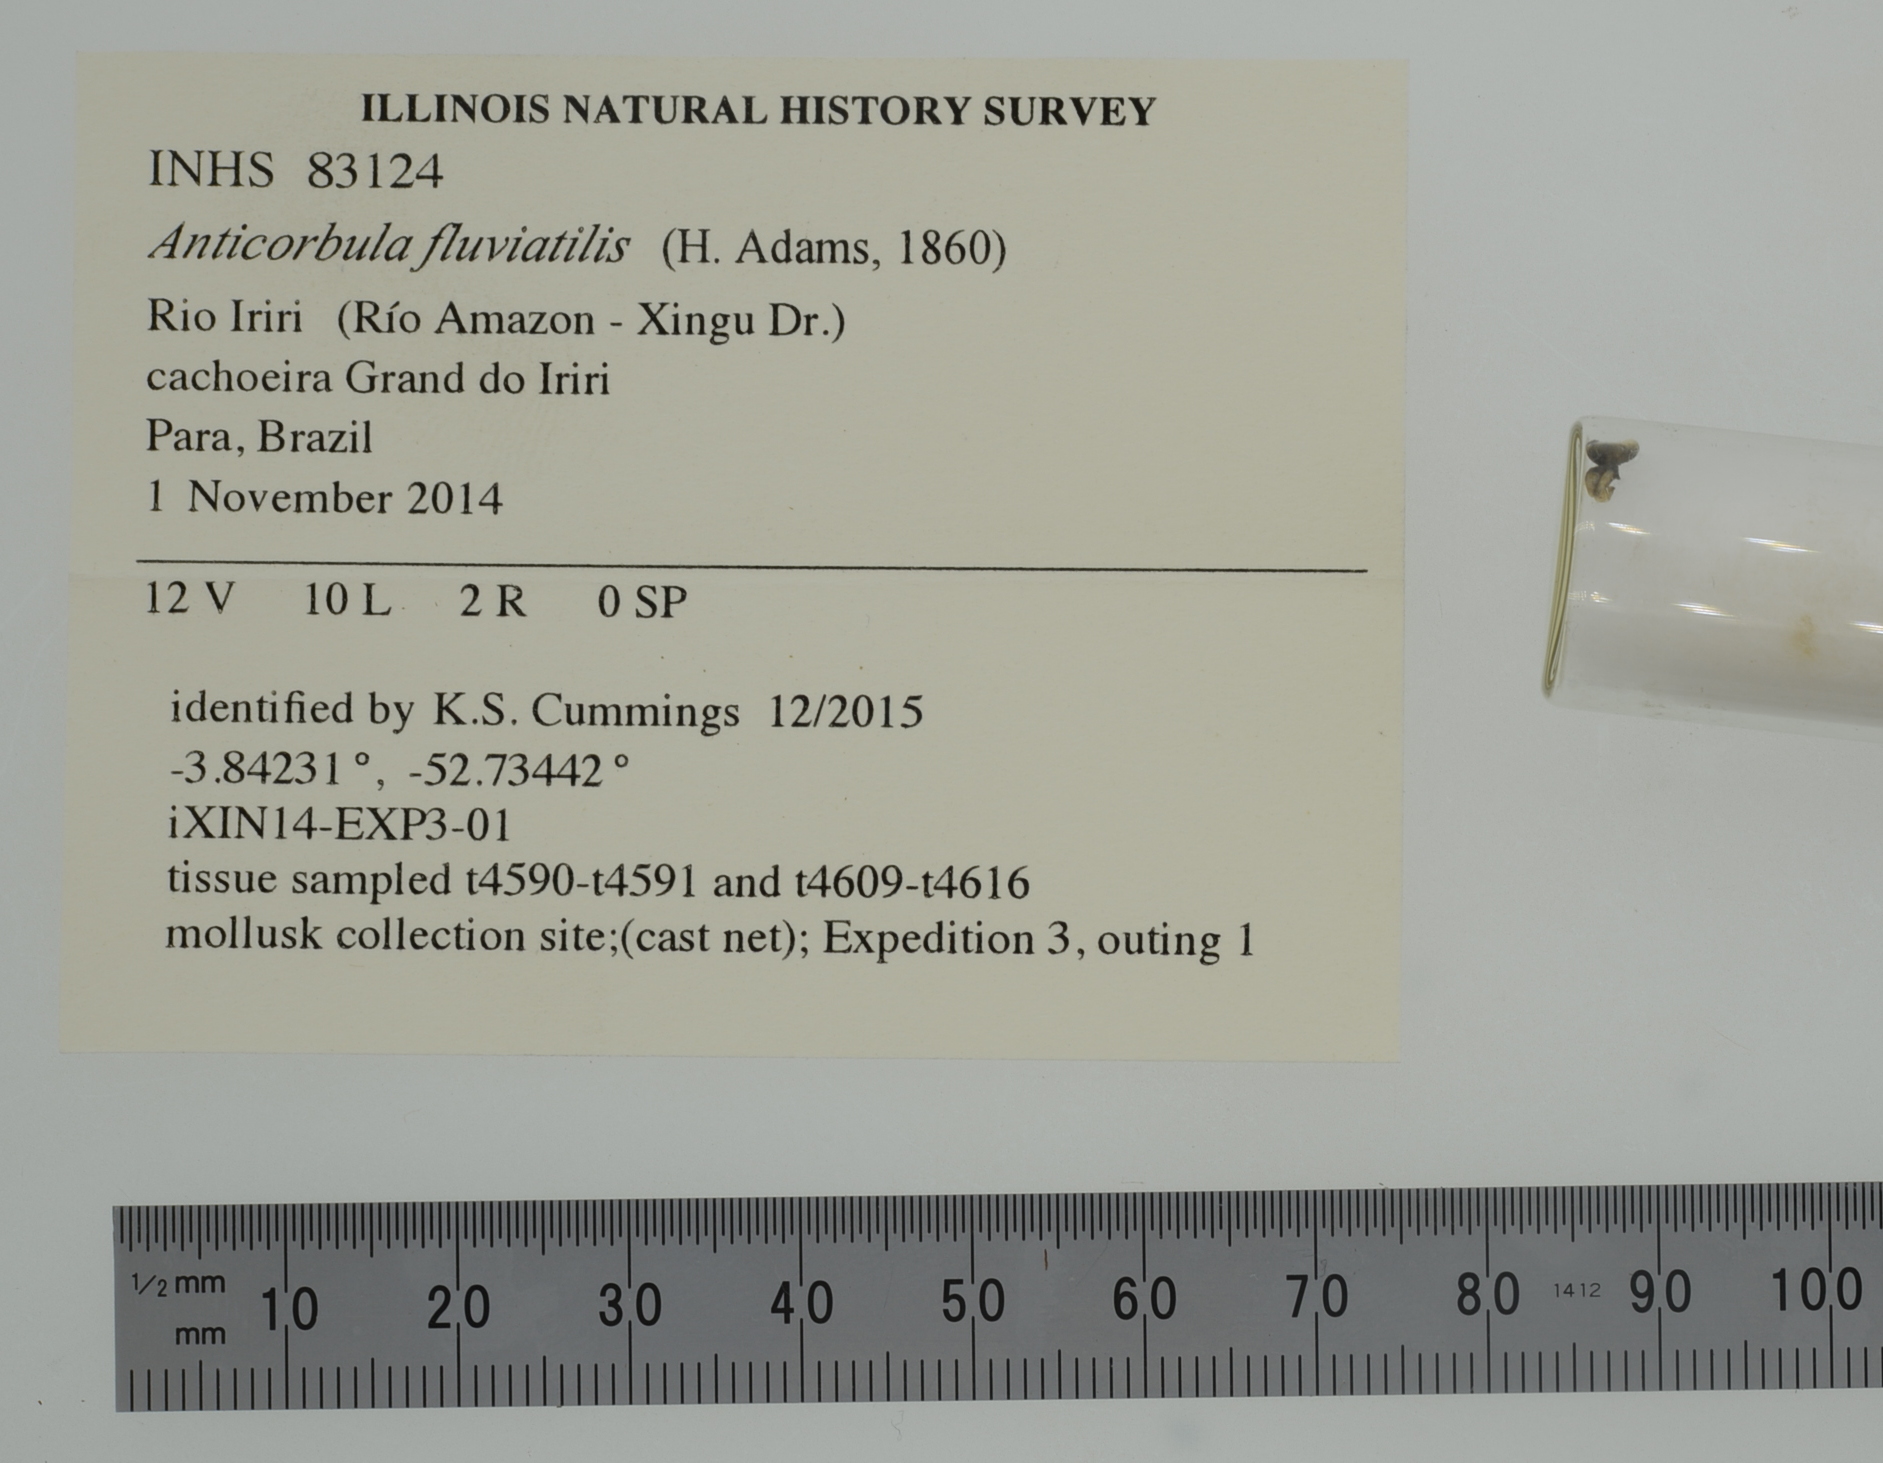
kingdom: Animalia
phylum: Mollusca
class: Bivalvia
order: Myida
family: Dreissenidae
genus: Rheodreissena
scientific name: Rheodreissena
